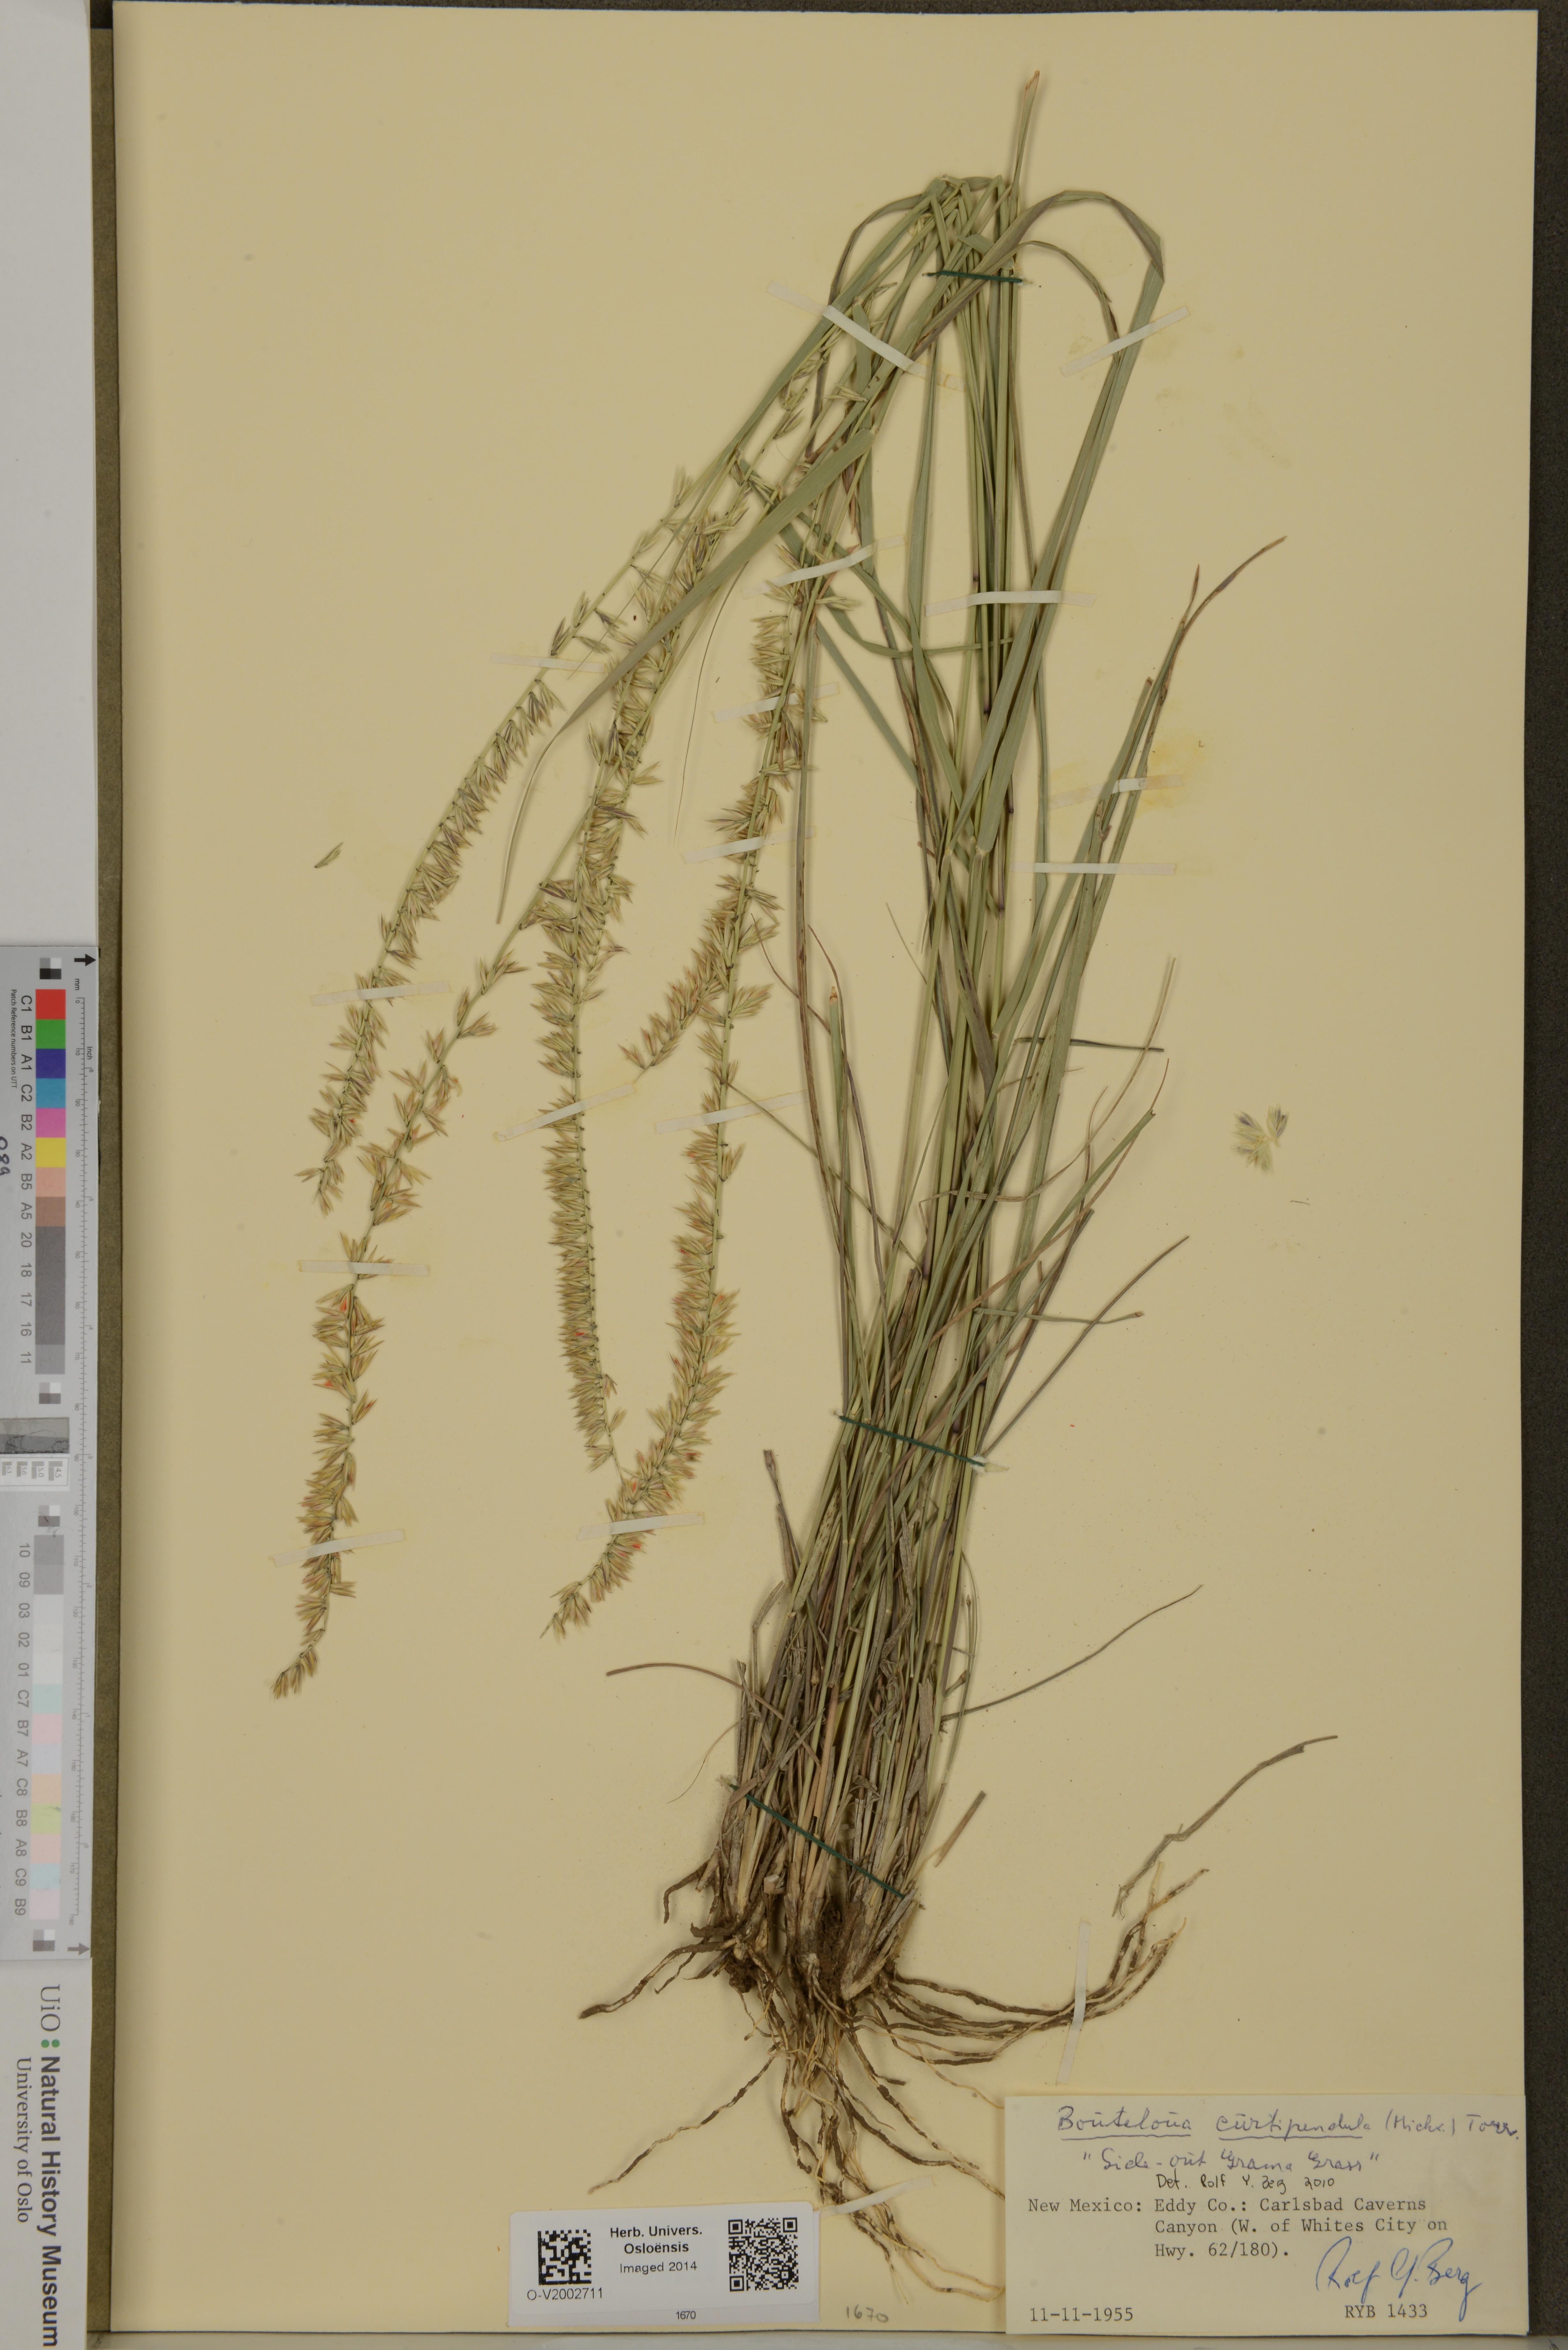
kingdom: Plantae
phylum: Tracheophyta
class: Liliopsida
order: Poales
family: Poaceae
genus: Bouteloua
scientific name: Bouteloua curtipendula
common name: Side-oats grama
